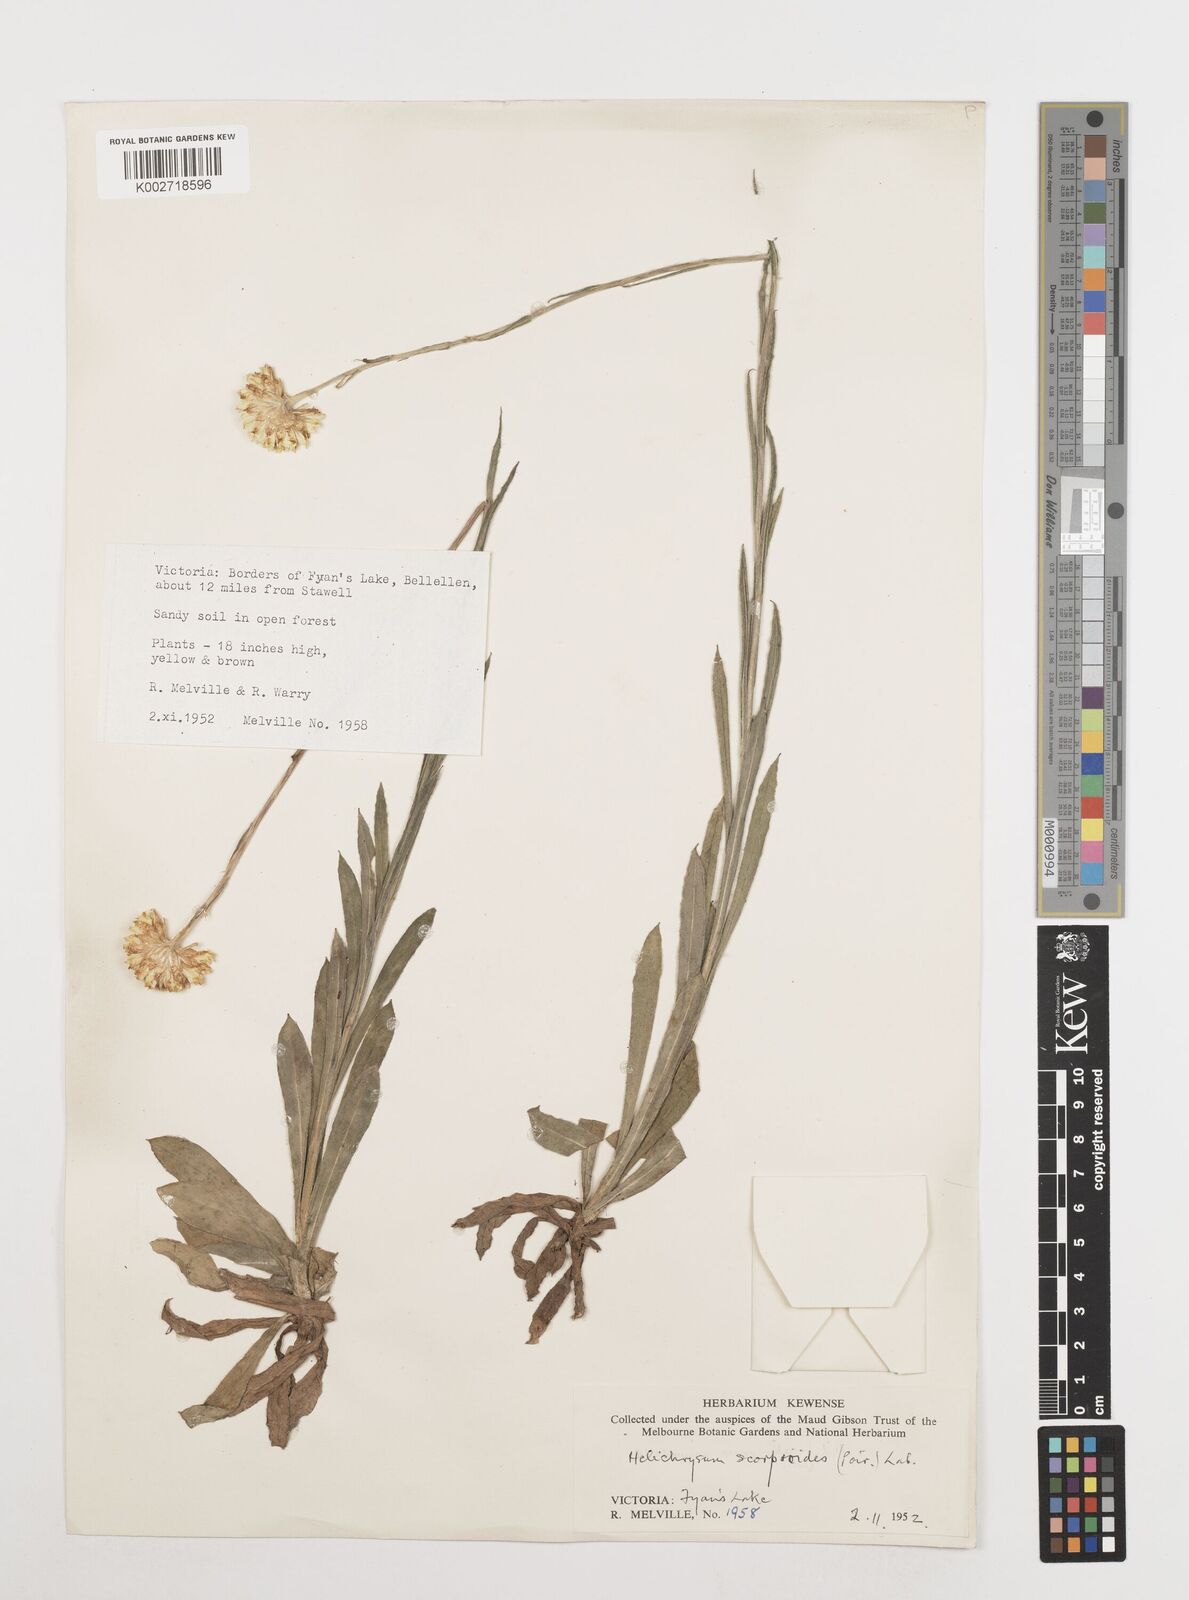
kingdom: Plantae
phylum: Tracheophyta
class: Magnoliopsida
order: Asterales
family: Asteraceae
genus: Coronidium
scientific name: Coronidium scorpioides
